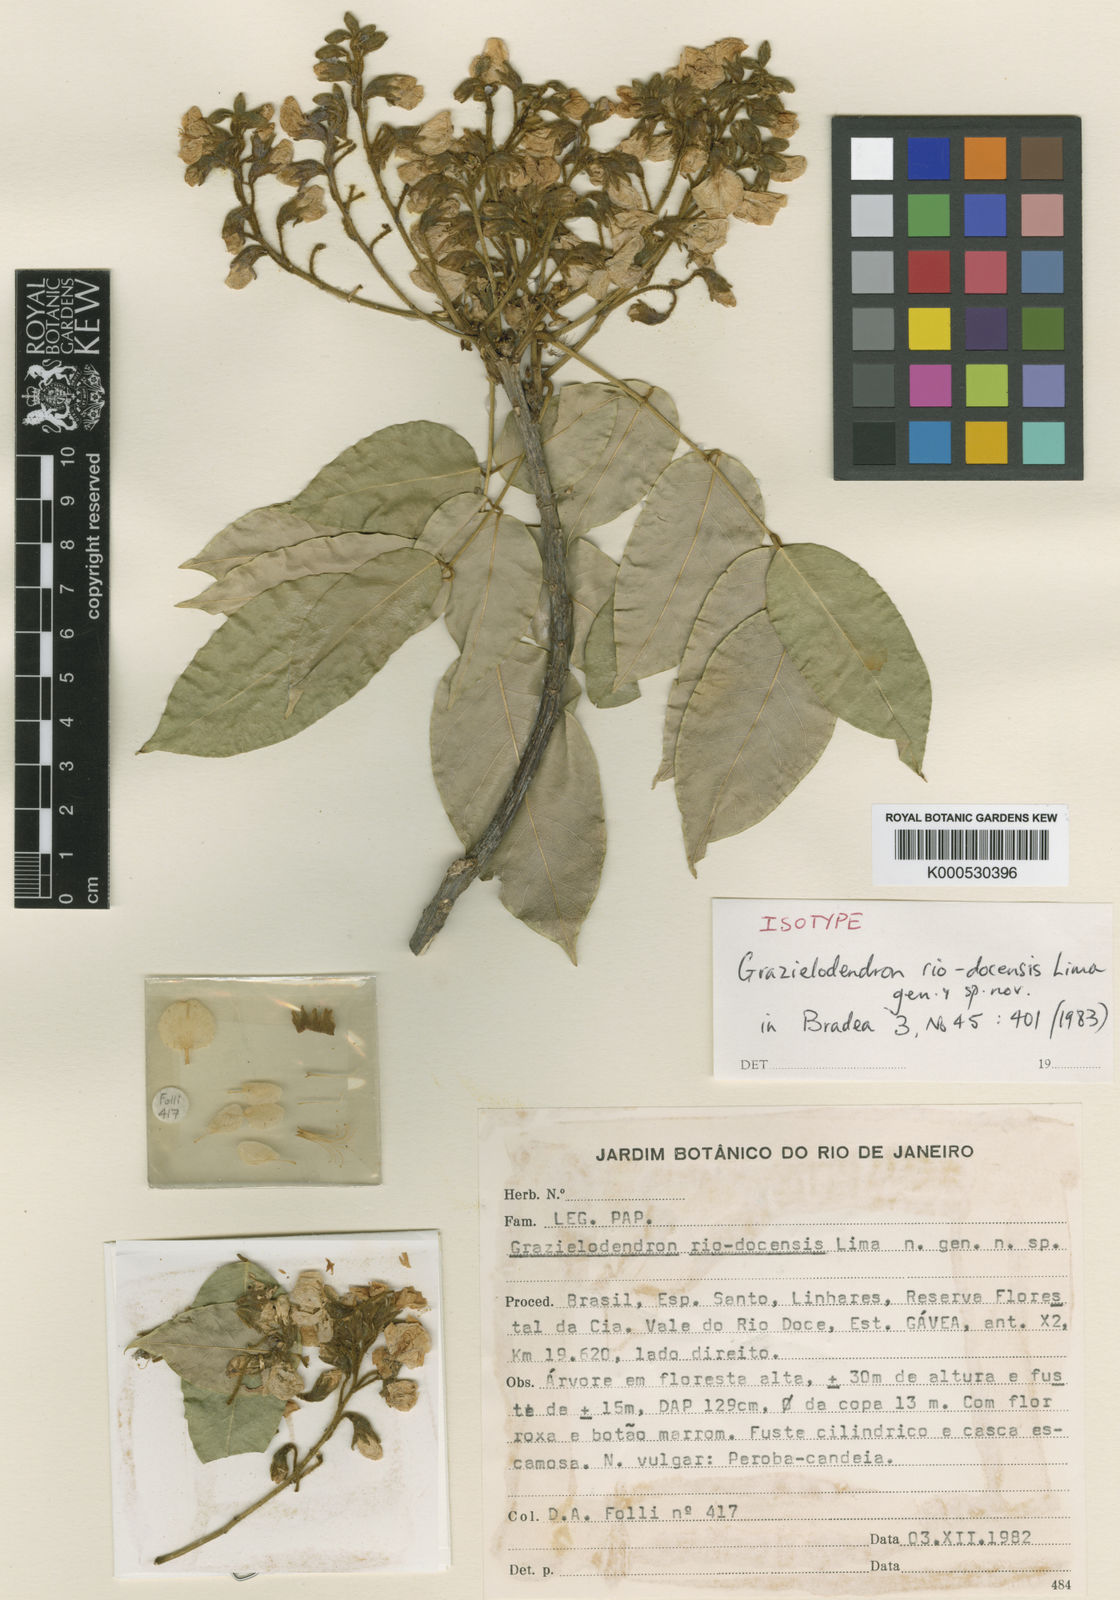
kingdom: Plantae
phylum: Tracheophyta
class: Magnoliopsida
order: Fabales
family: Fabaceae
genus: Grazielodendron
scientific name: Grazielodendron riodocensis
